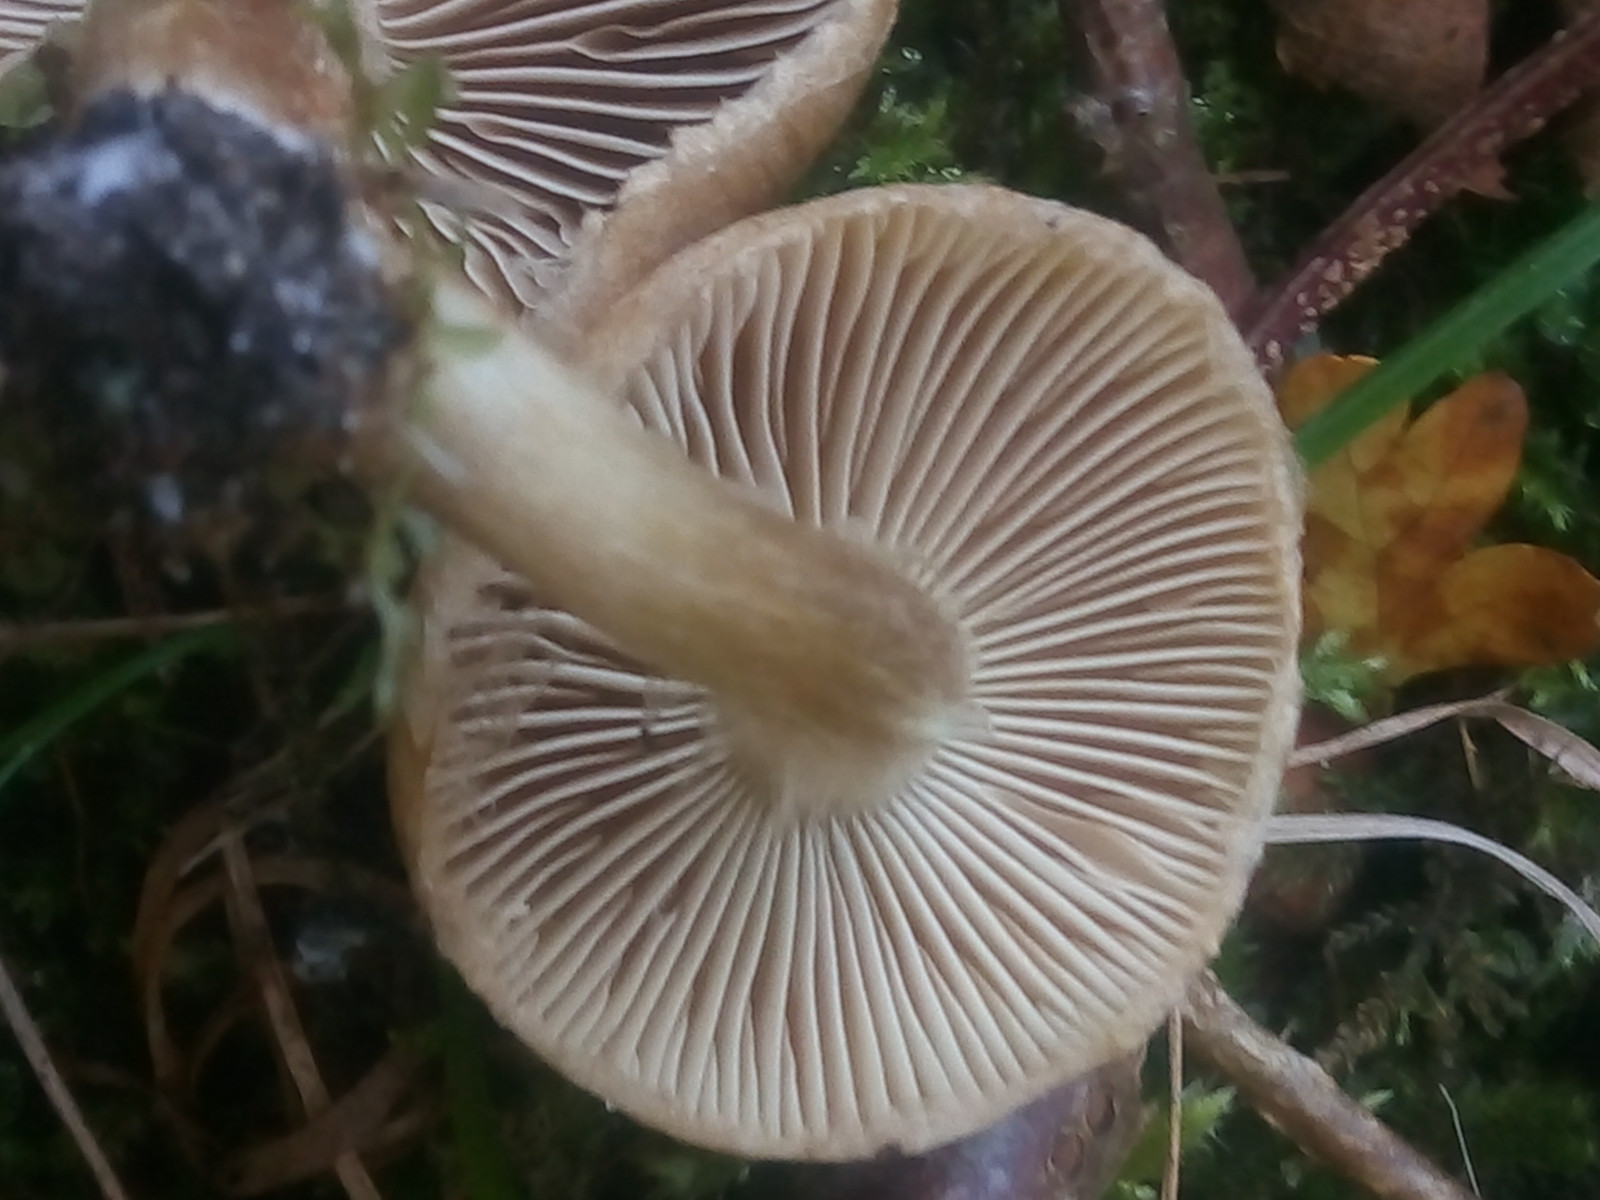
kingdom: Fungi
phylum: Basidiomycota
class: Agaricomycetes
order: Agaricales
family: Inocybaceae
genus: Inocybe
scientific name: Inocybe dulcamara
